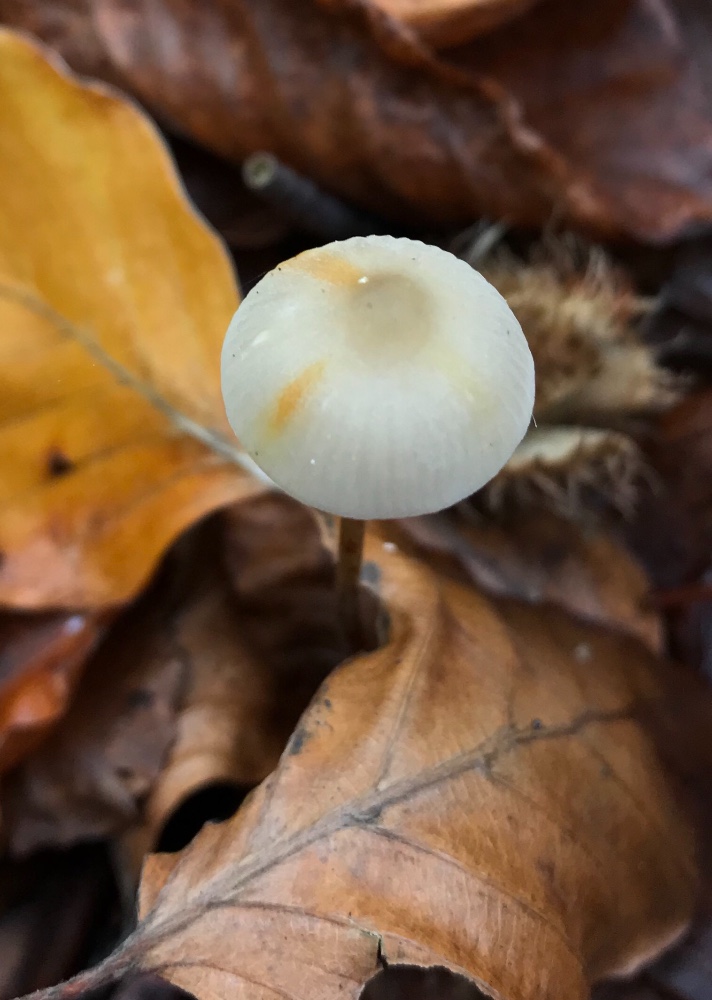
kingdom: Fungi
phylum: Basidiomycota
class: Agaricomycetes
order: Agaricales
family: Mycenaceae
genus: Mycena
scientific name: Mycena crocata
